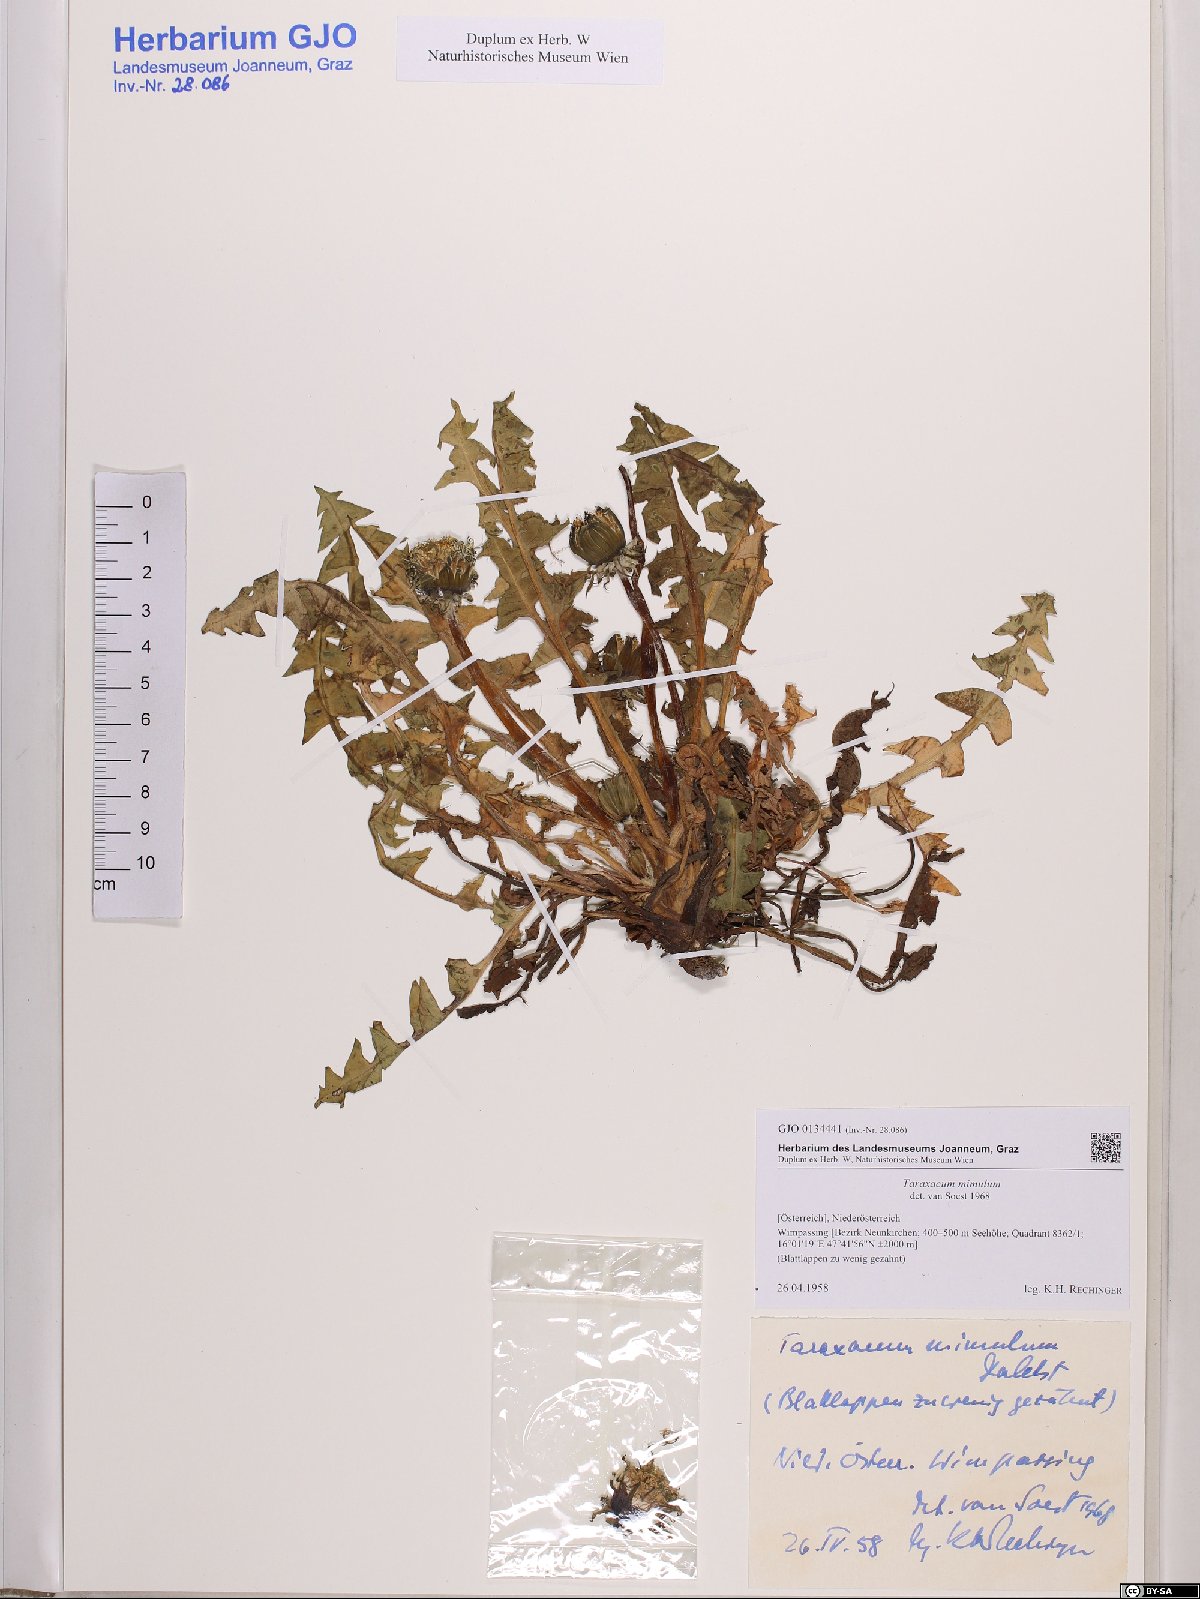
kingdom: Plantae
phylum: Tracheophyta
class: Magnoliopsida
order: Asterales
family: Asteraceae
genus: Taraxacum
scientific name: Taraxacum mimulum
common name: Sharp-lobed dandelion
